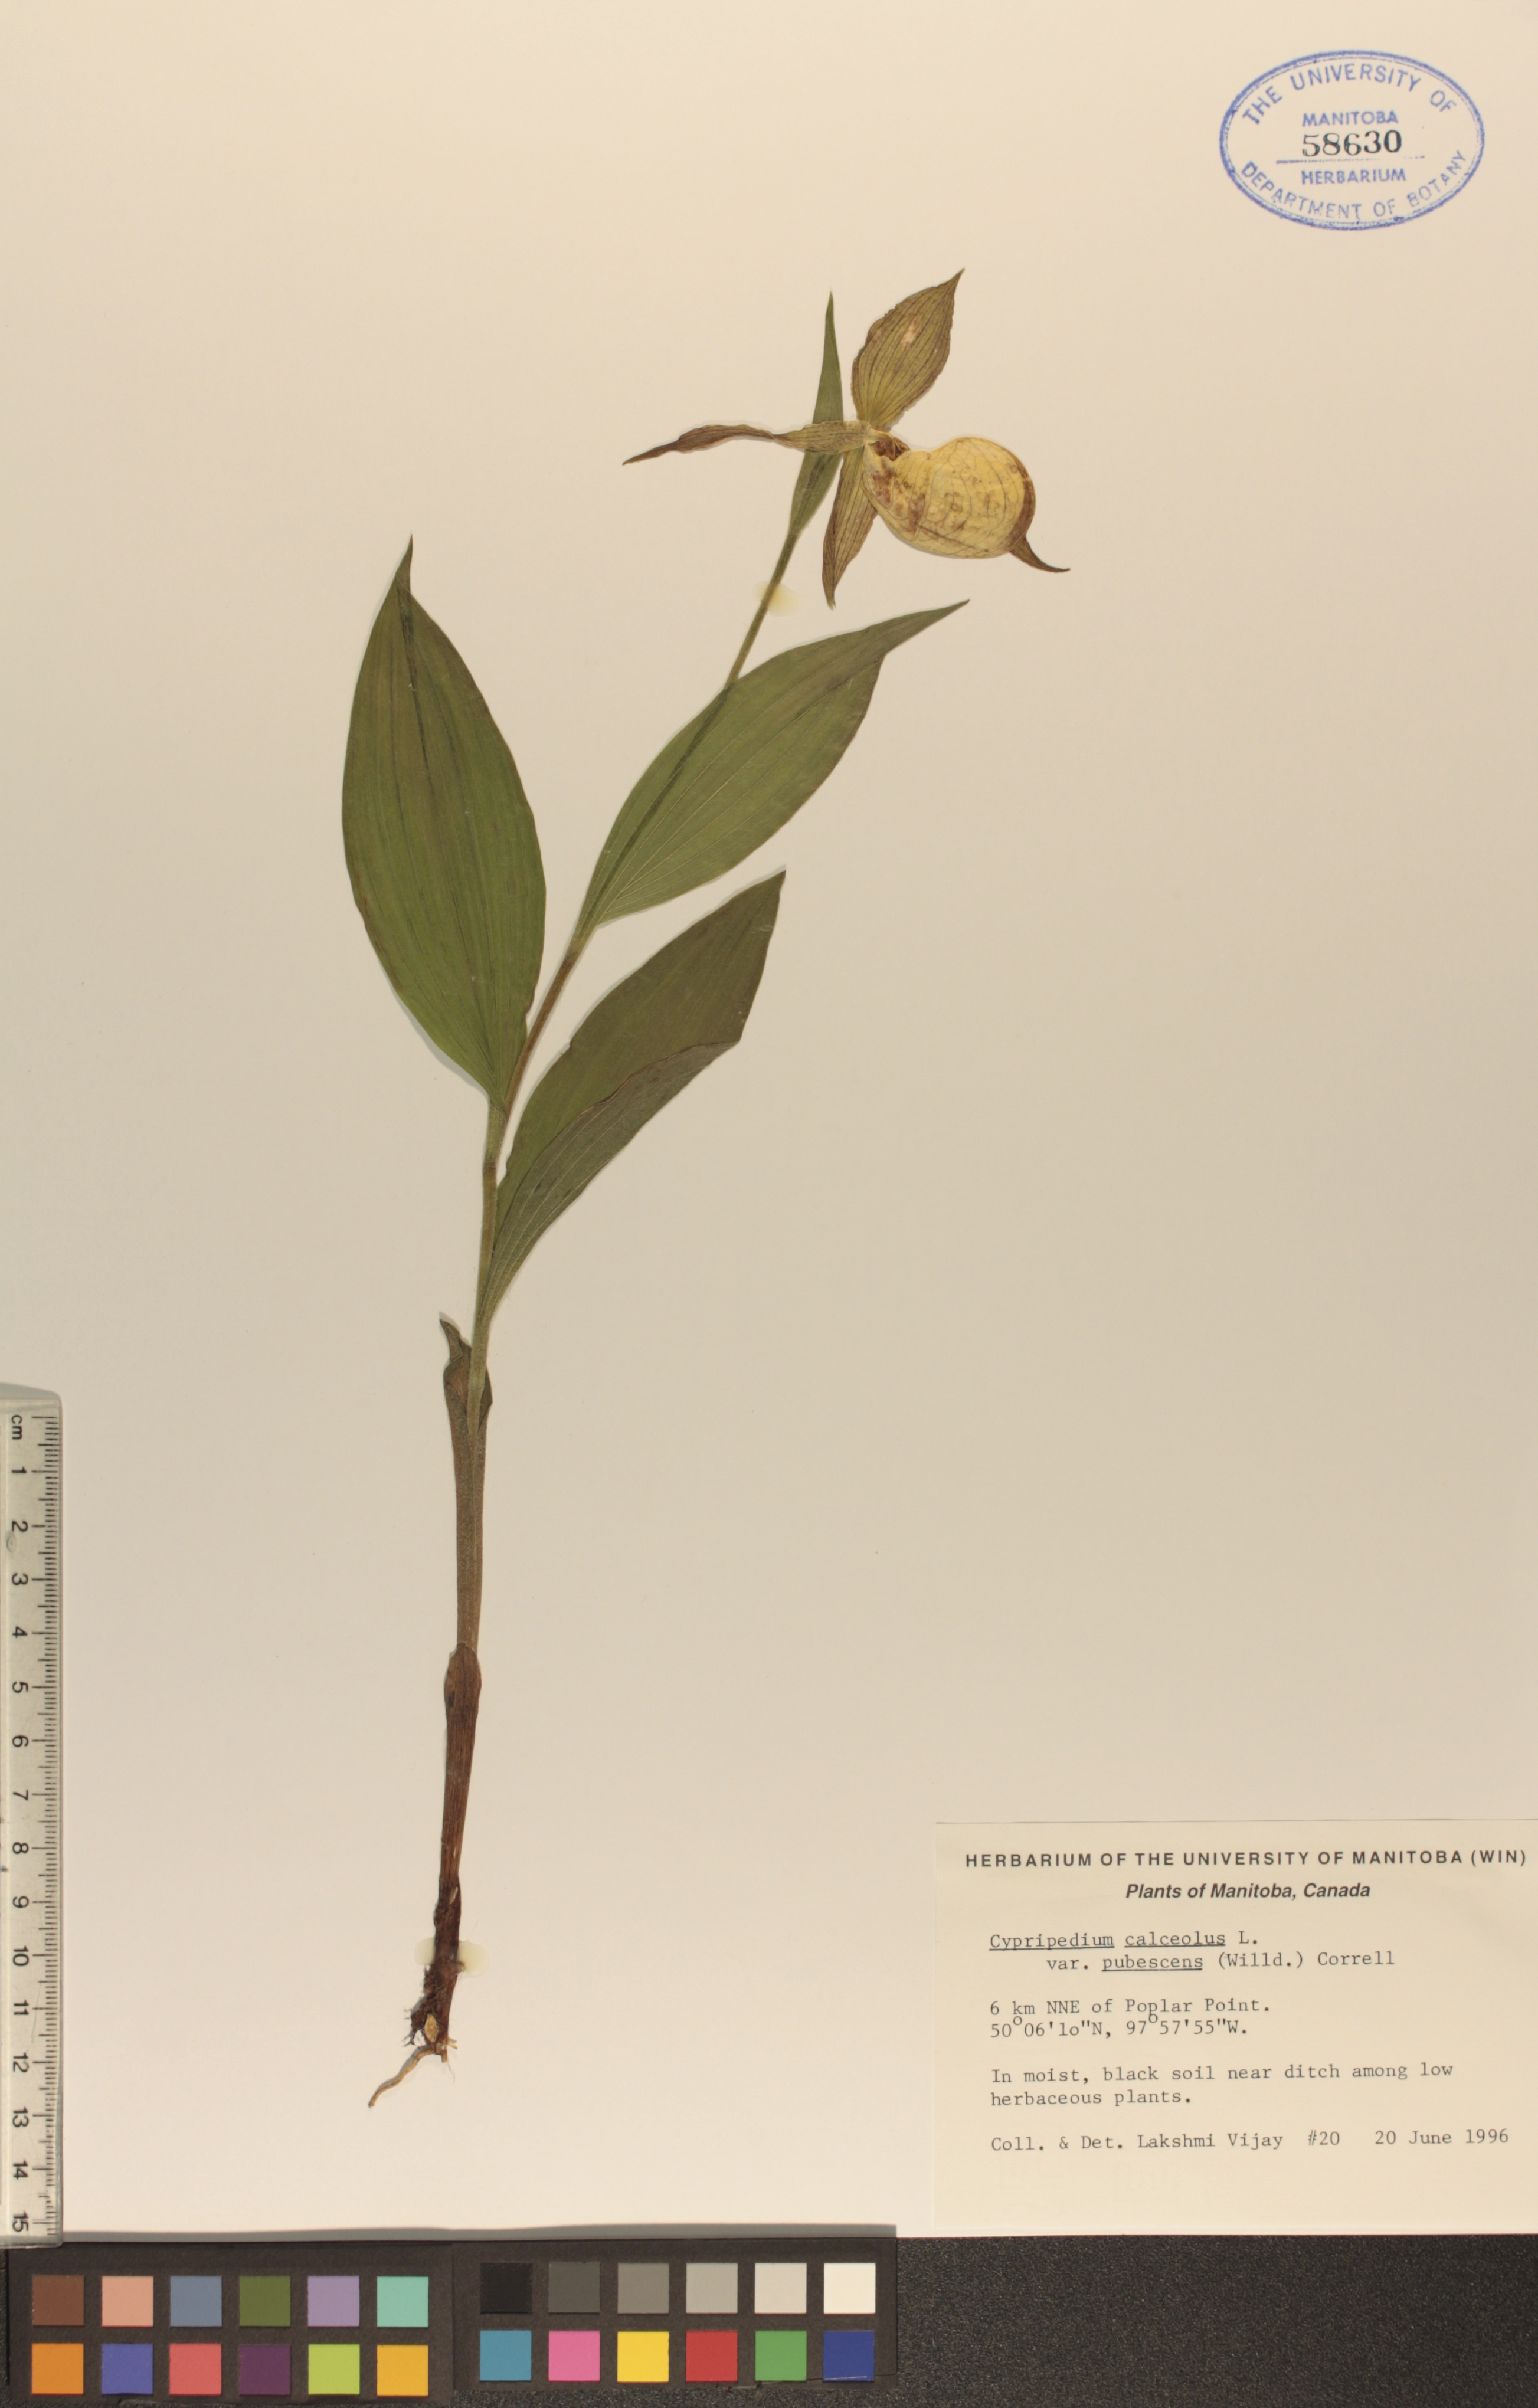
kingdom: Plantae
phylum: Tracheophyta
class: Liliopsida
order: Asparagales
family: Orchidaceae
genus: Cypripedium
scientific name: Cypripedium parviflorum
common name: American yellow lady's-slipper
